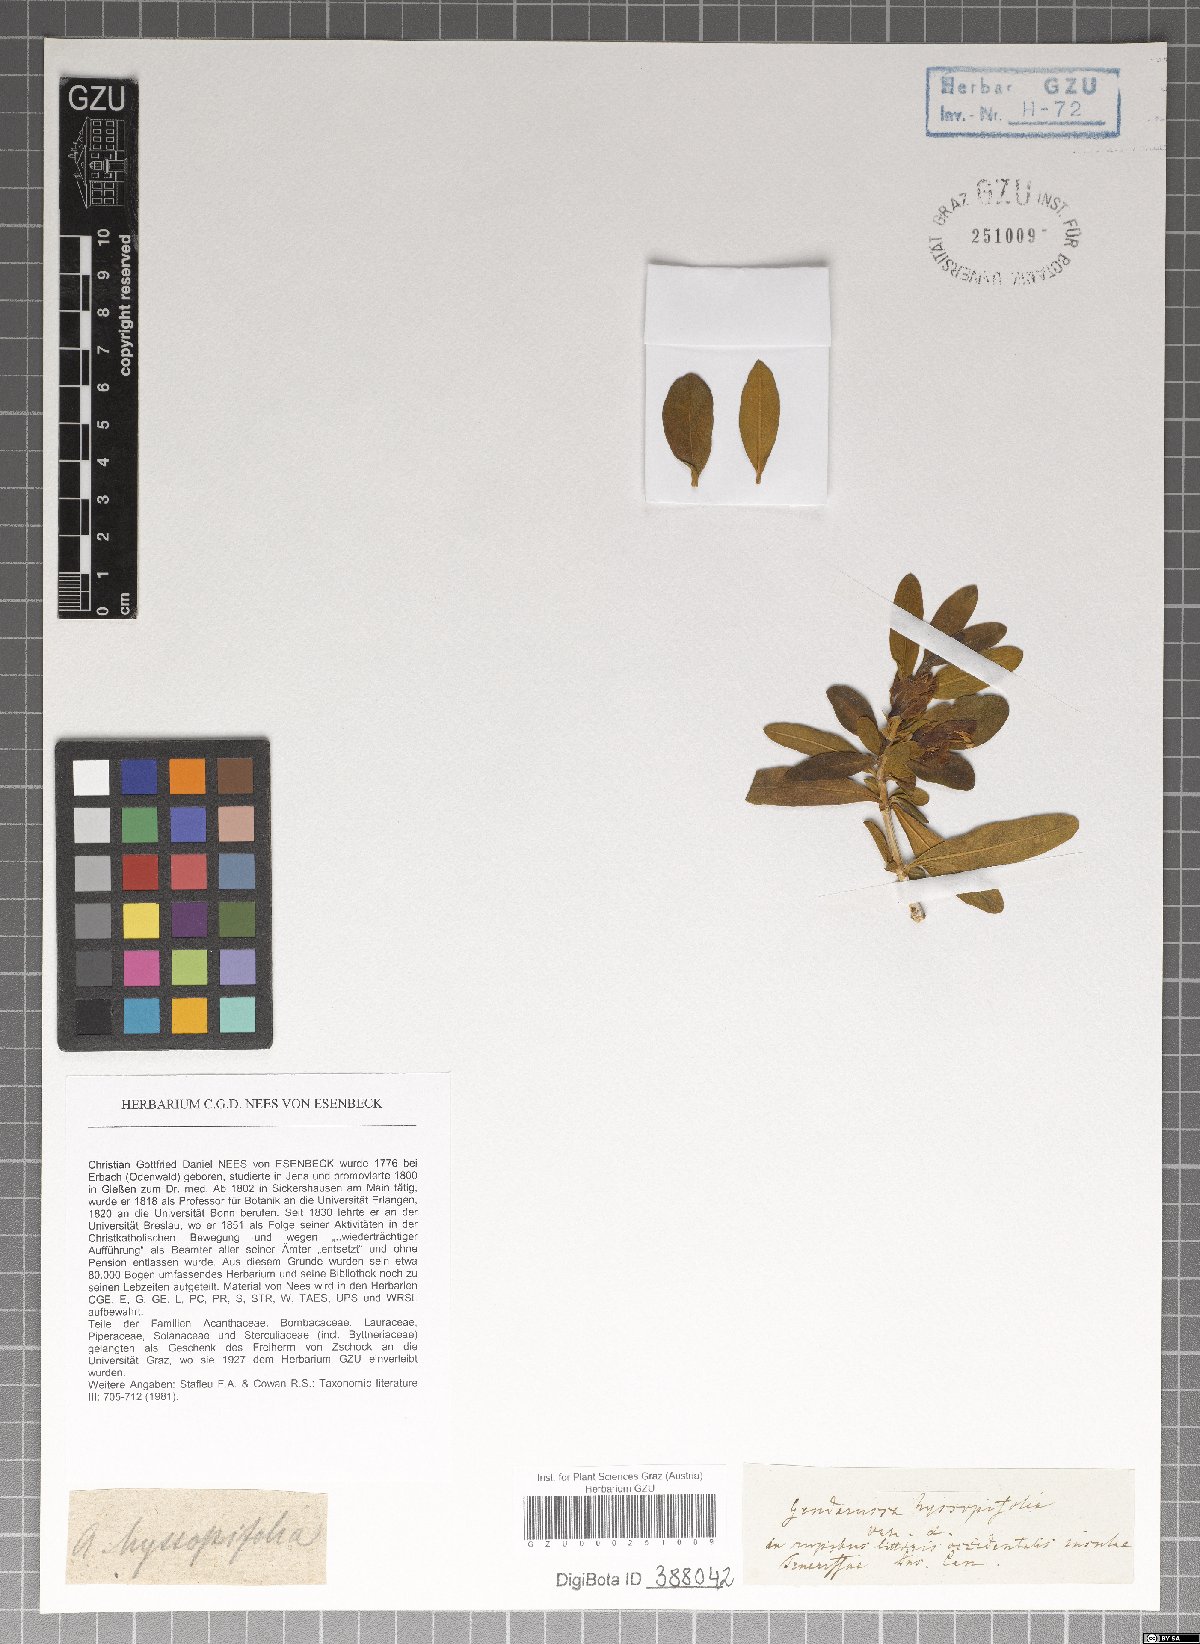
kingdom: Plantae
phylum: Tracheophyta
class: Magnoliopsida
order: Lamiales
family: Acanthaceae
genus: Monechma
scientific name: Monechma spartioides
